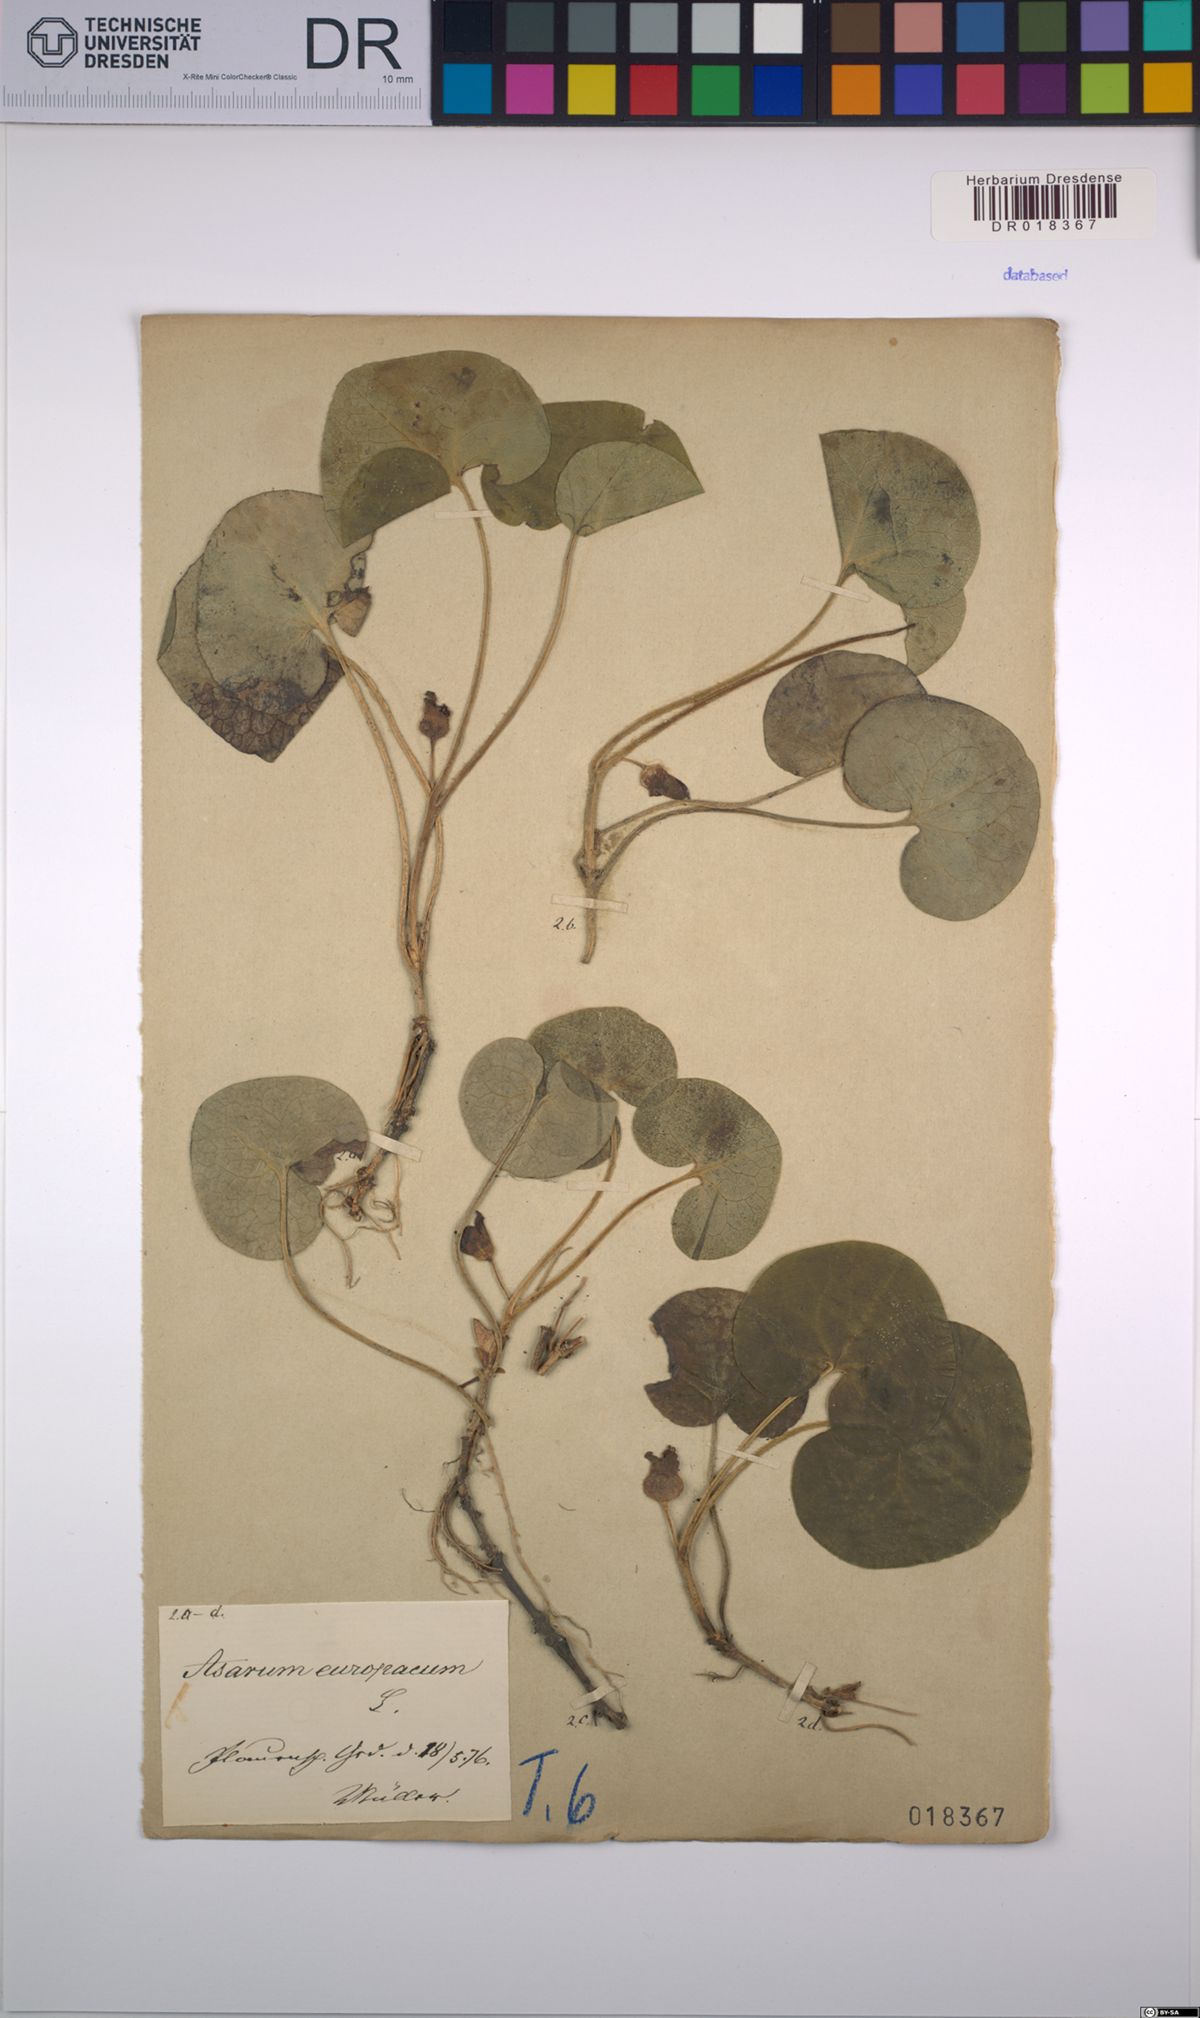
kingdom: Plantae
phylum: Tracheophyta
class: Magnoliopsida
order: Piperales
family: Aristolochiaceae
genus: Asarum
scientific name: Asarum europaeum
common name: Asarabacca
